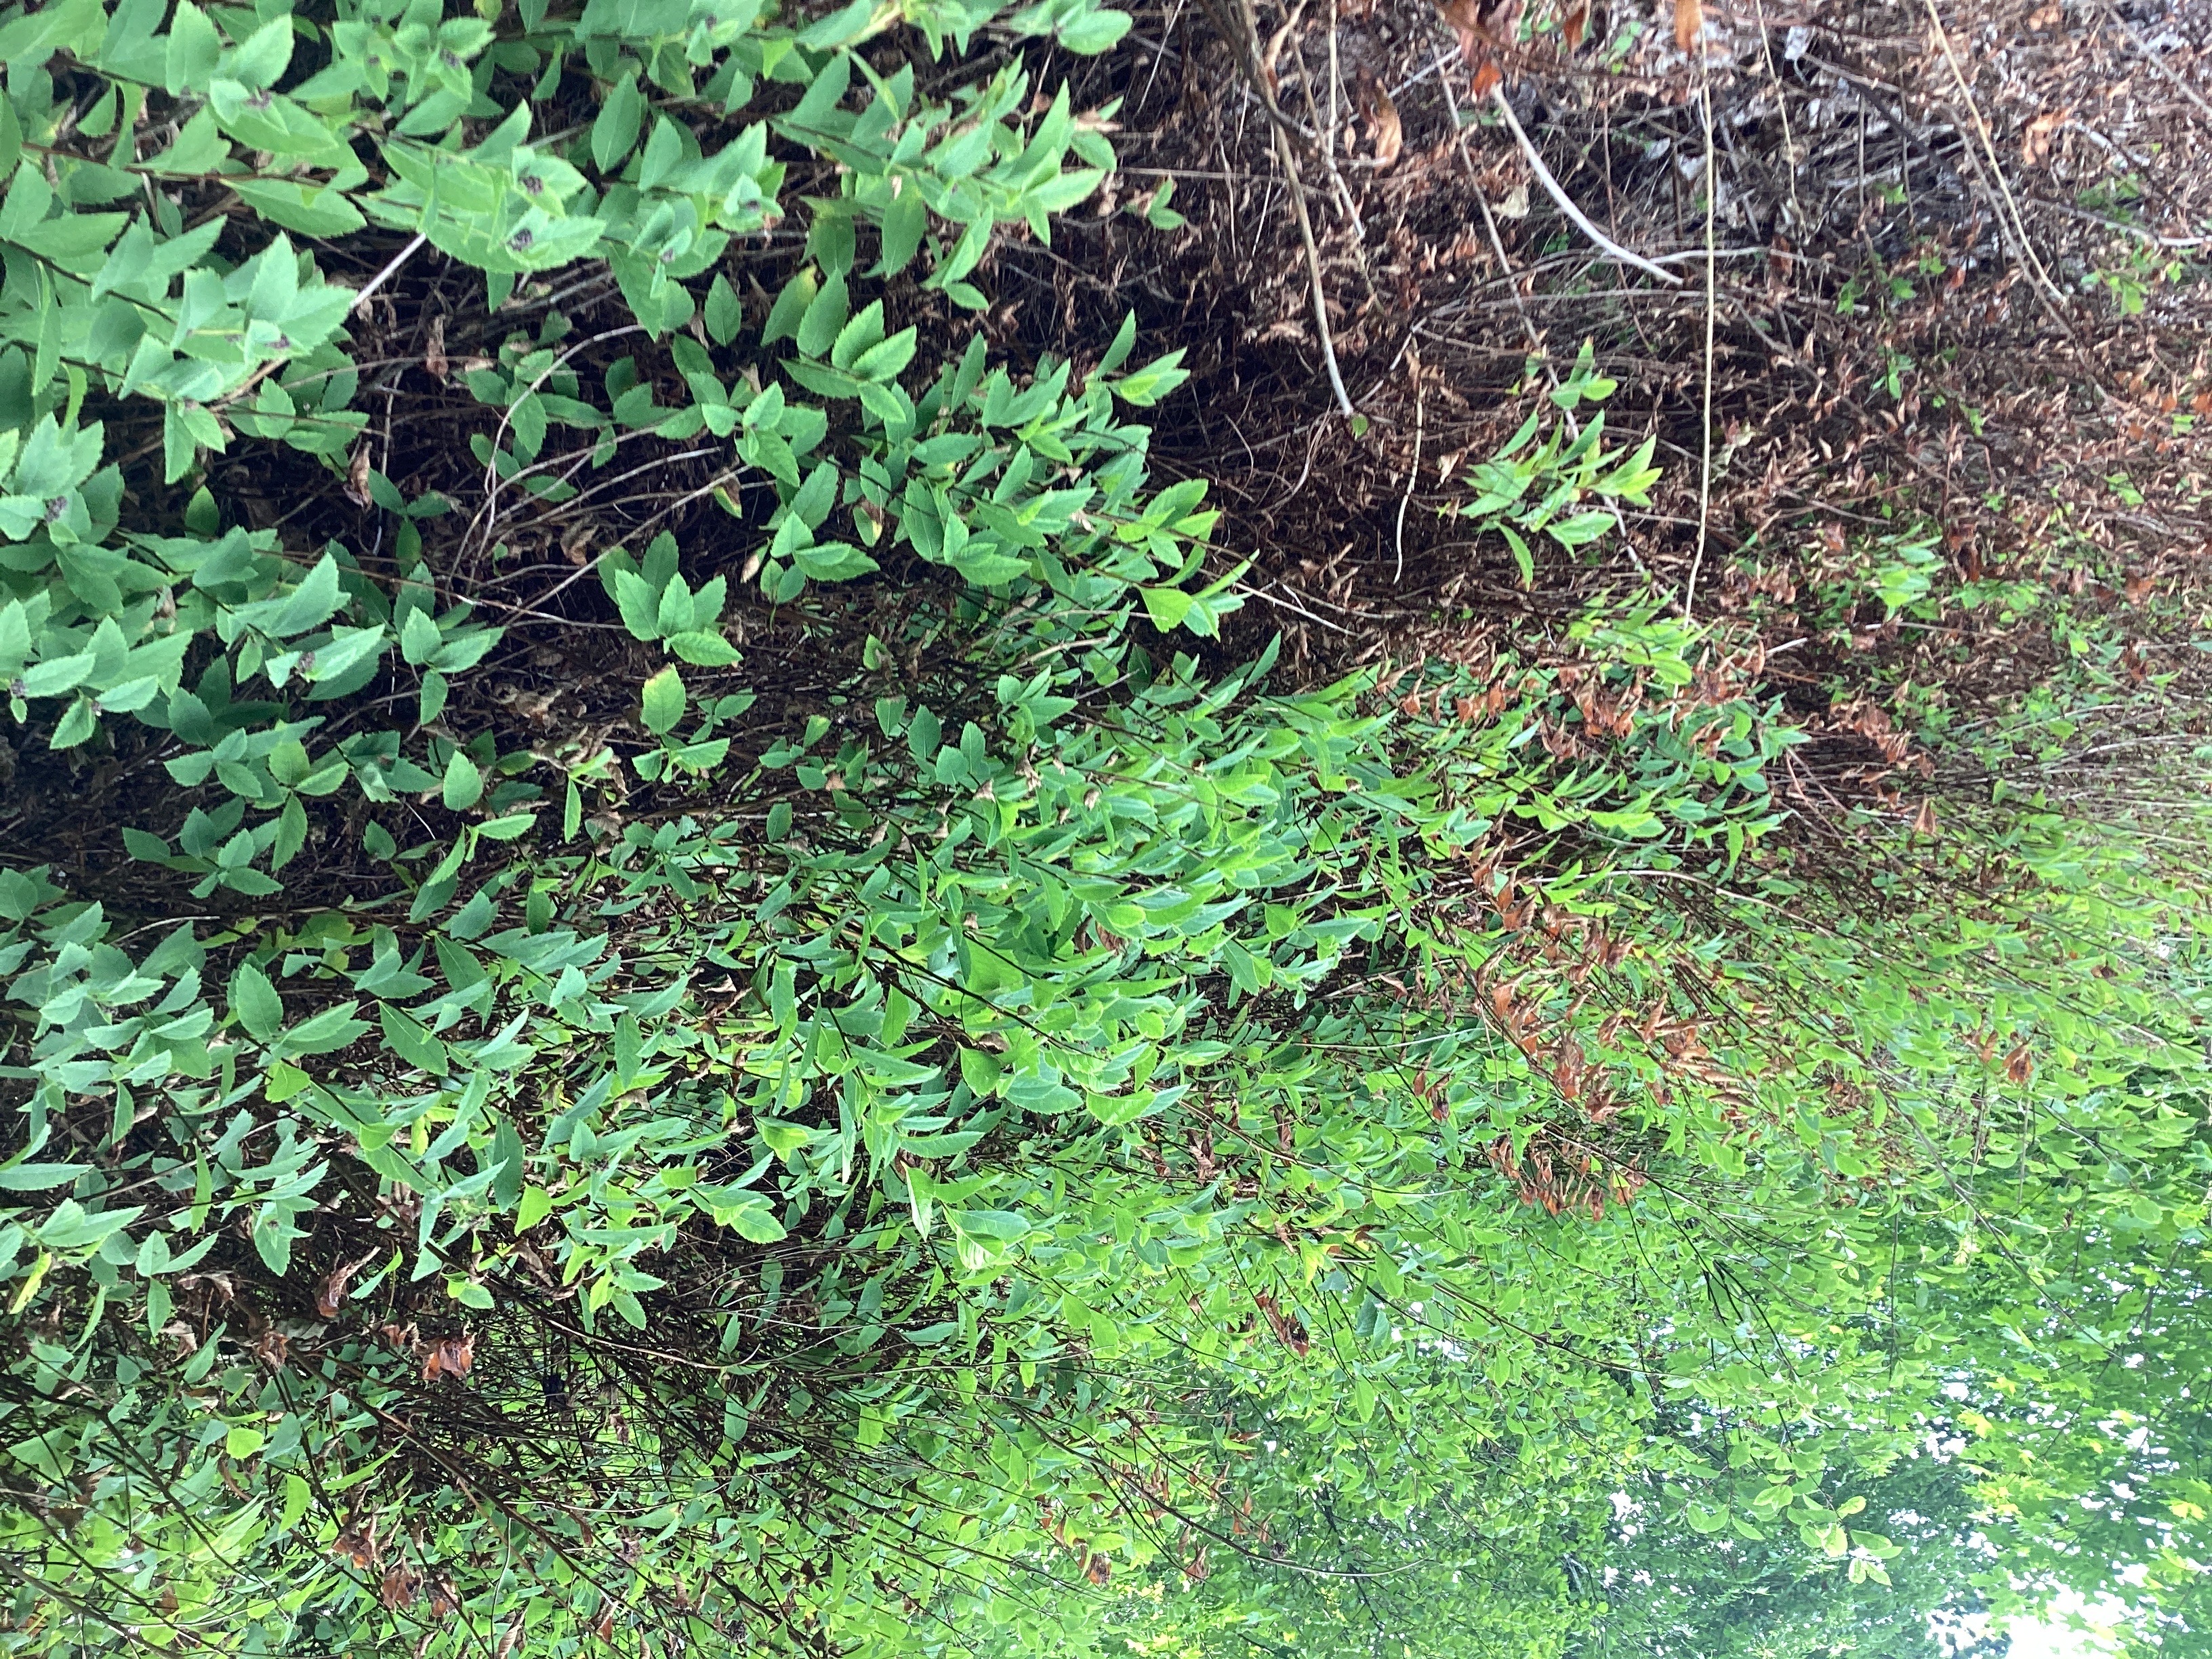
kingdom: Plantae
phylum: Tracheophyta
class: Magnoliopsida
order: Rosales
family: Rosaceae
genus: Spiraea
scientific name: Spiraea rosalba
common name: purpurspirea
